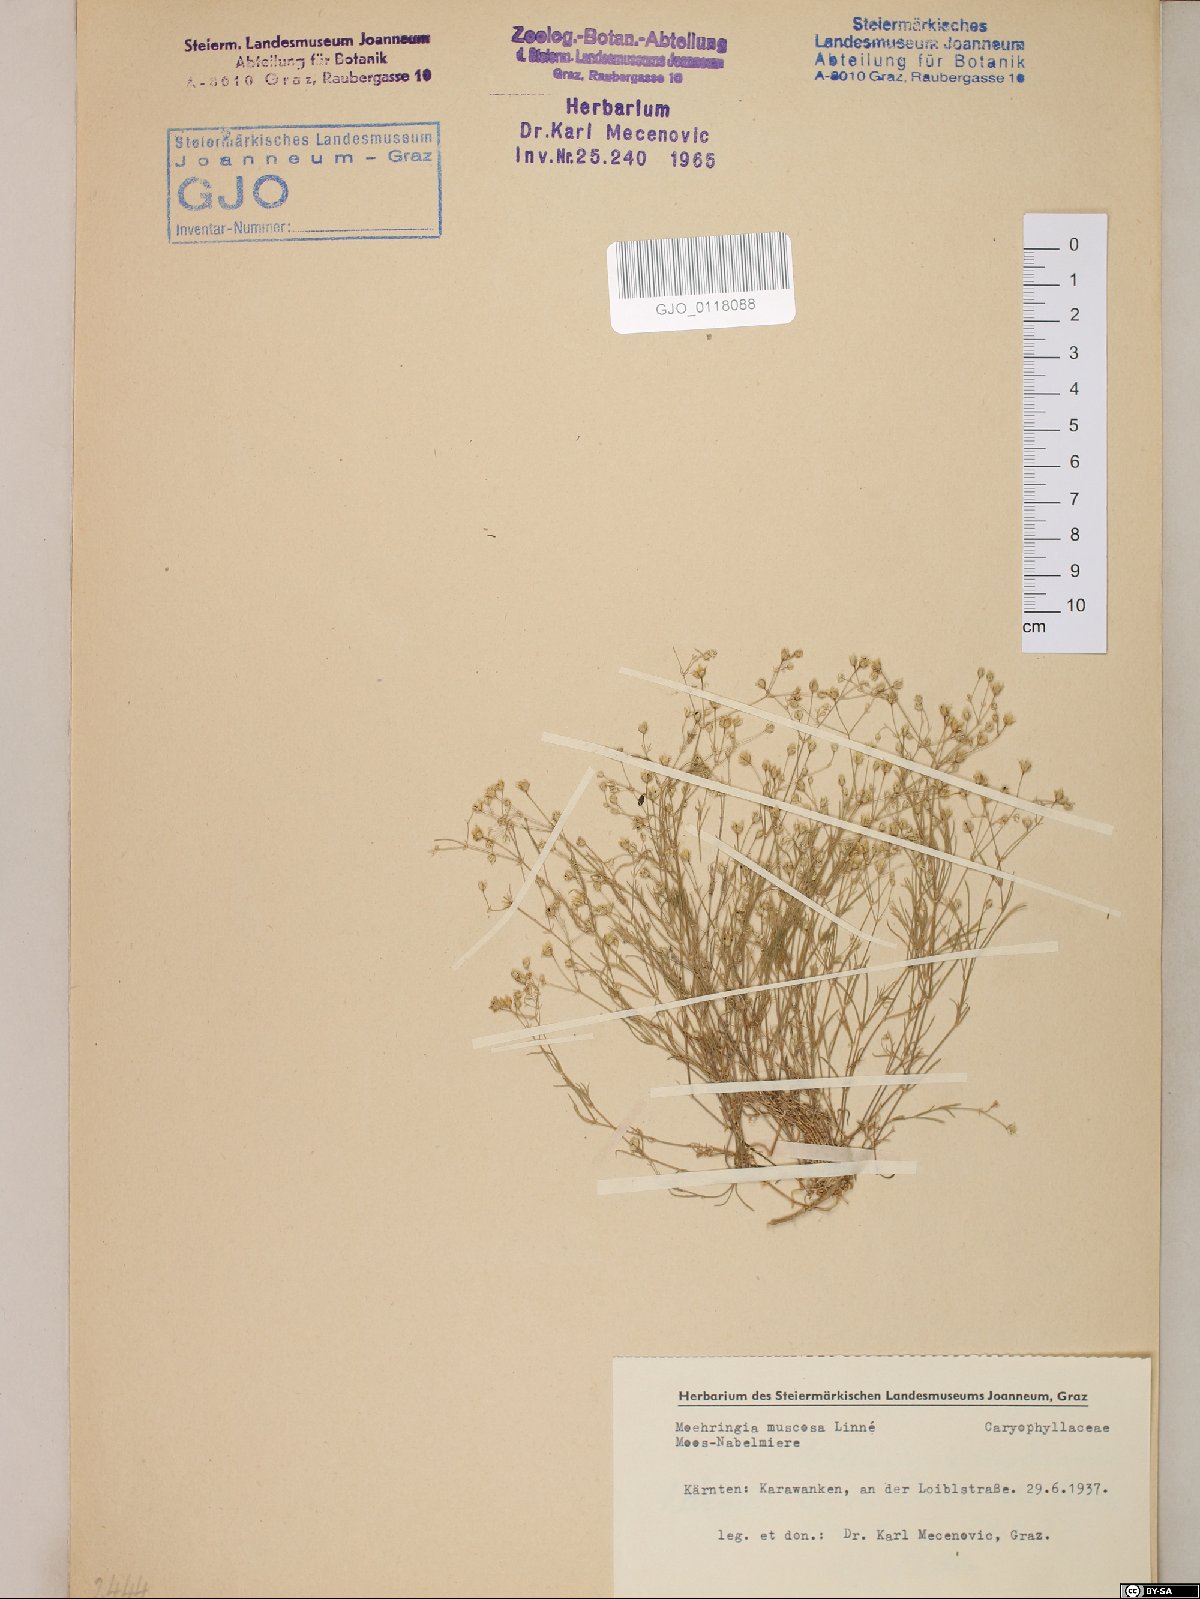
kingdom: Plantae
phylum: Tracheophyta
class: Magnoliopsida
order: Caryophyllales
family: Caryophyllaceae
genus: Moehringia
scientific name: Moehringia muscosa
